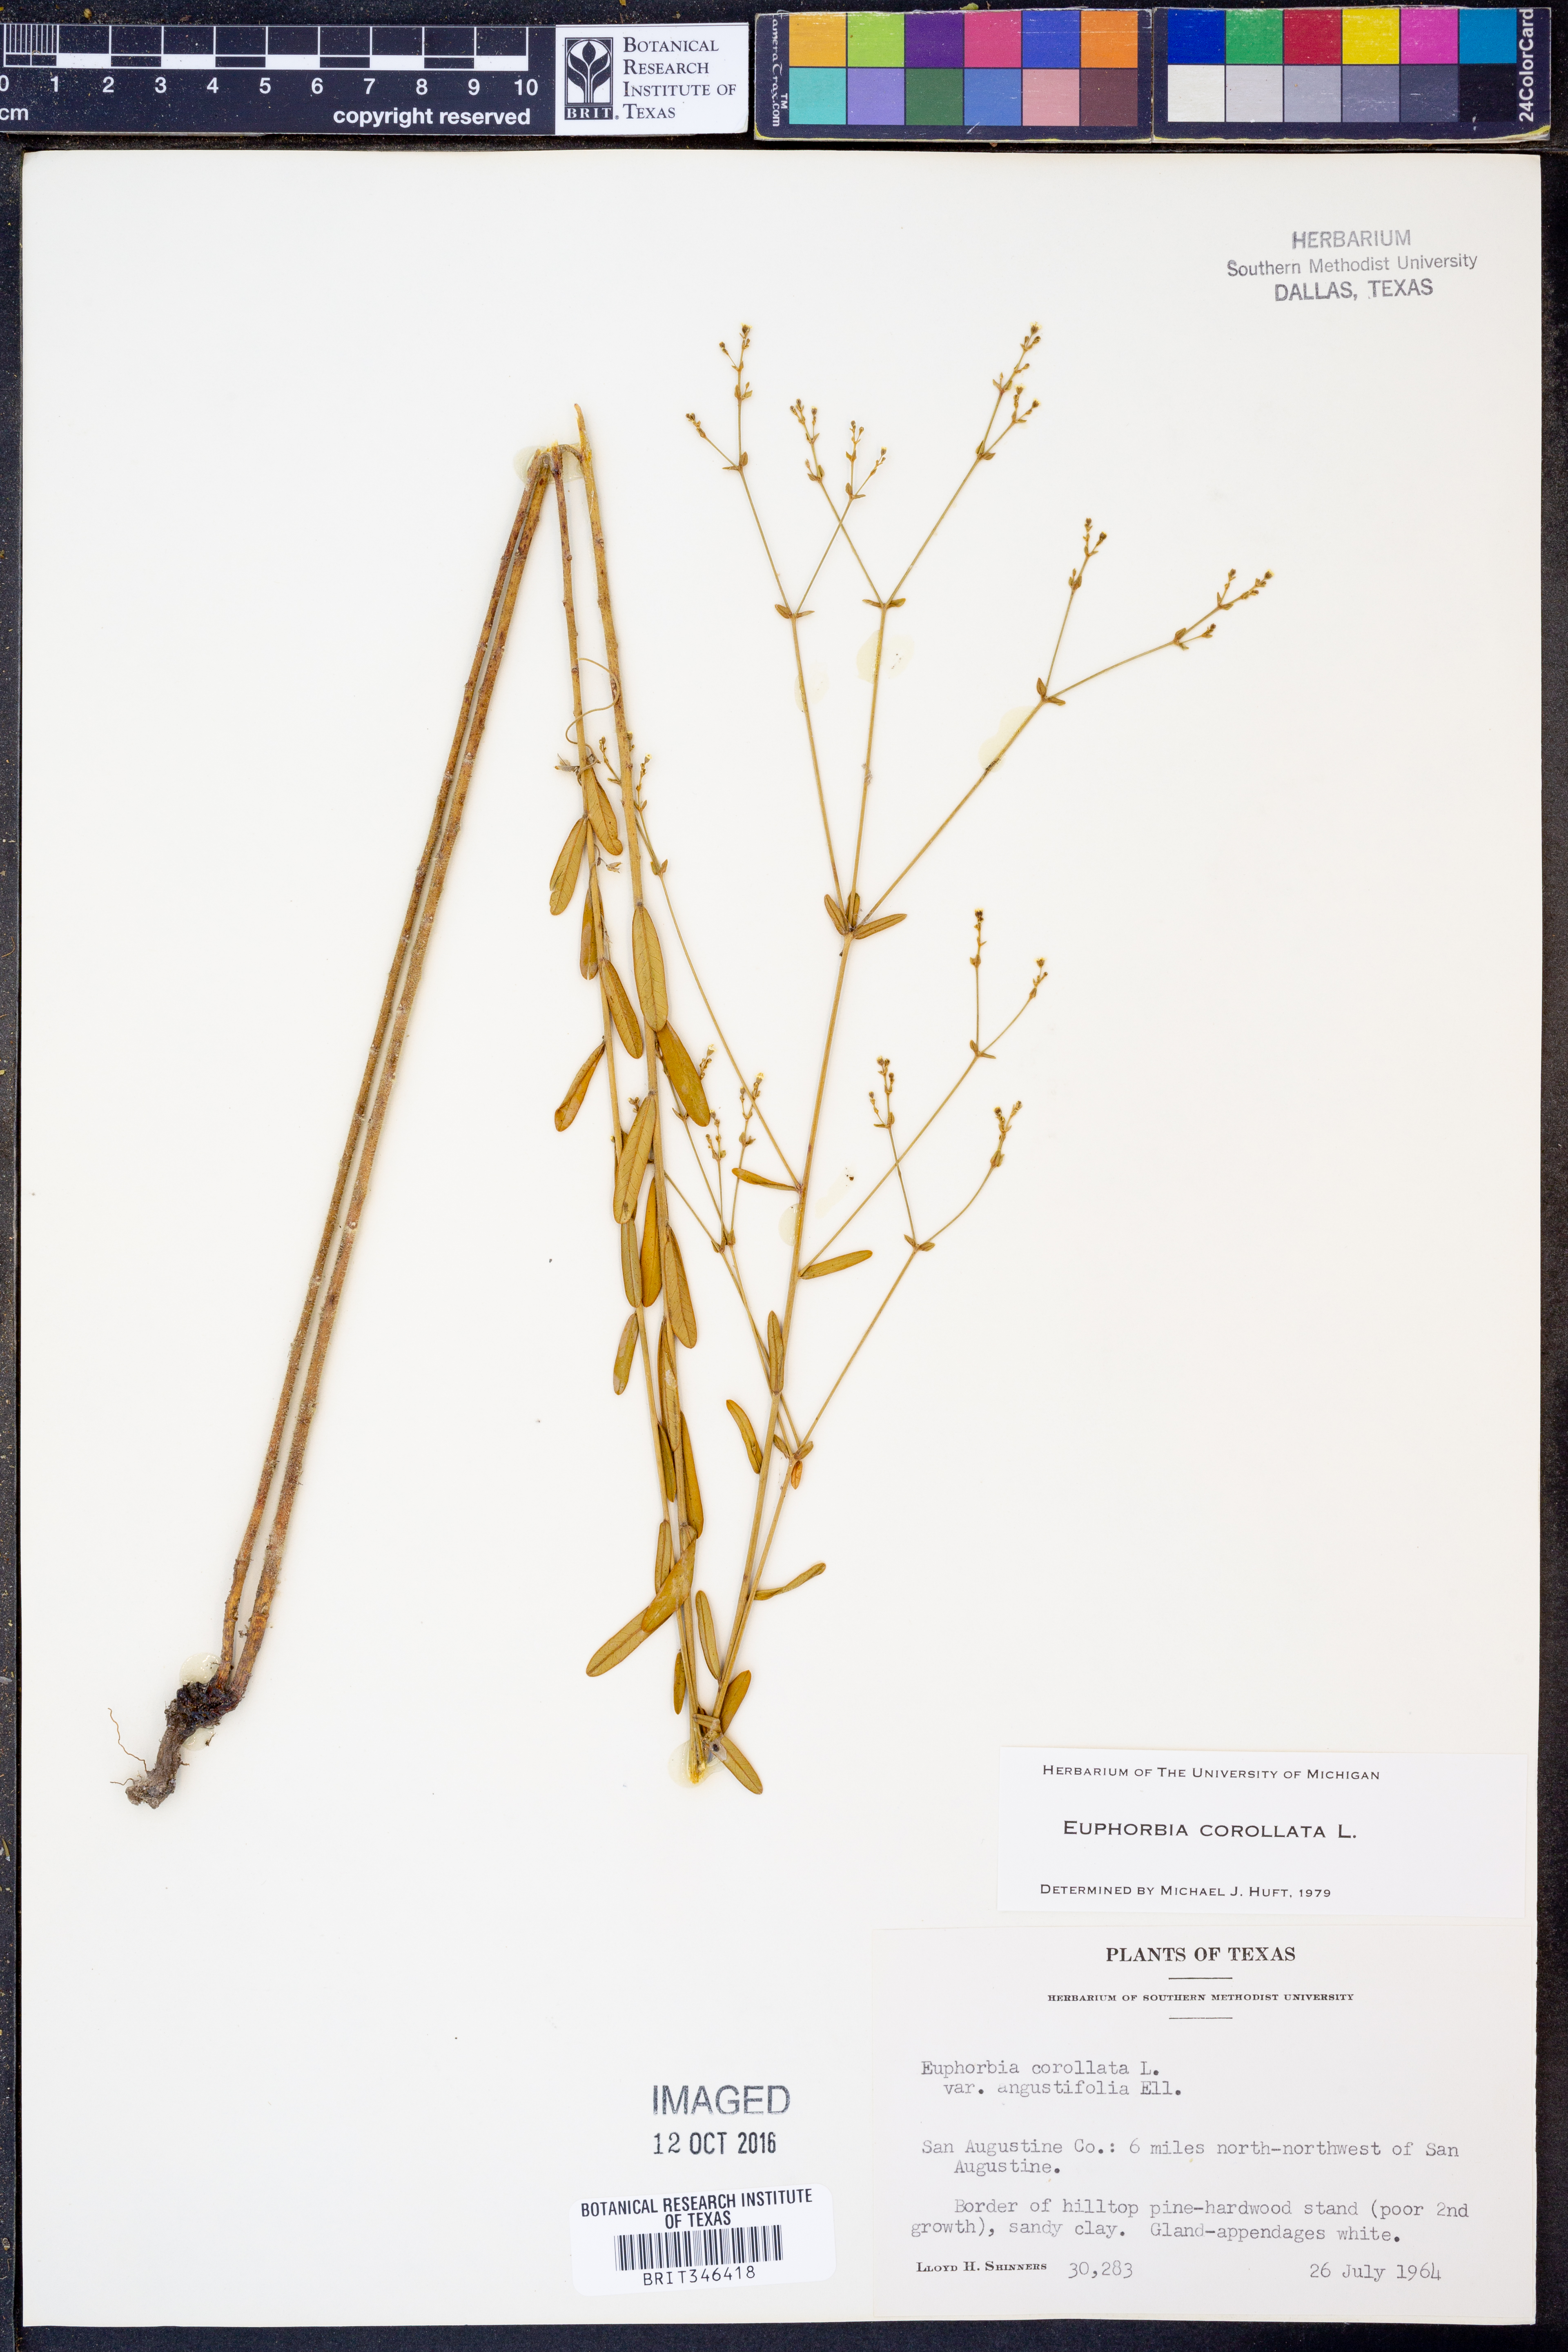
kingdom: Plantae
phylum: Tracheophyta
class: Magnoliopsida
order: Malpighiales
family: Euphorbiaceae
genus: Euphorbia
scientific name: Euphorbia corollata
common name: Flowering spurge
